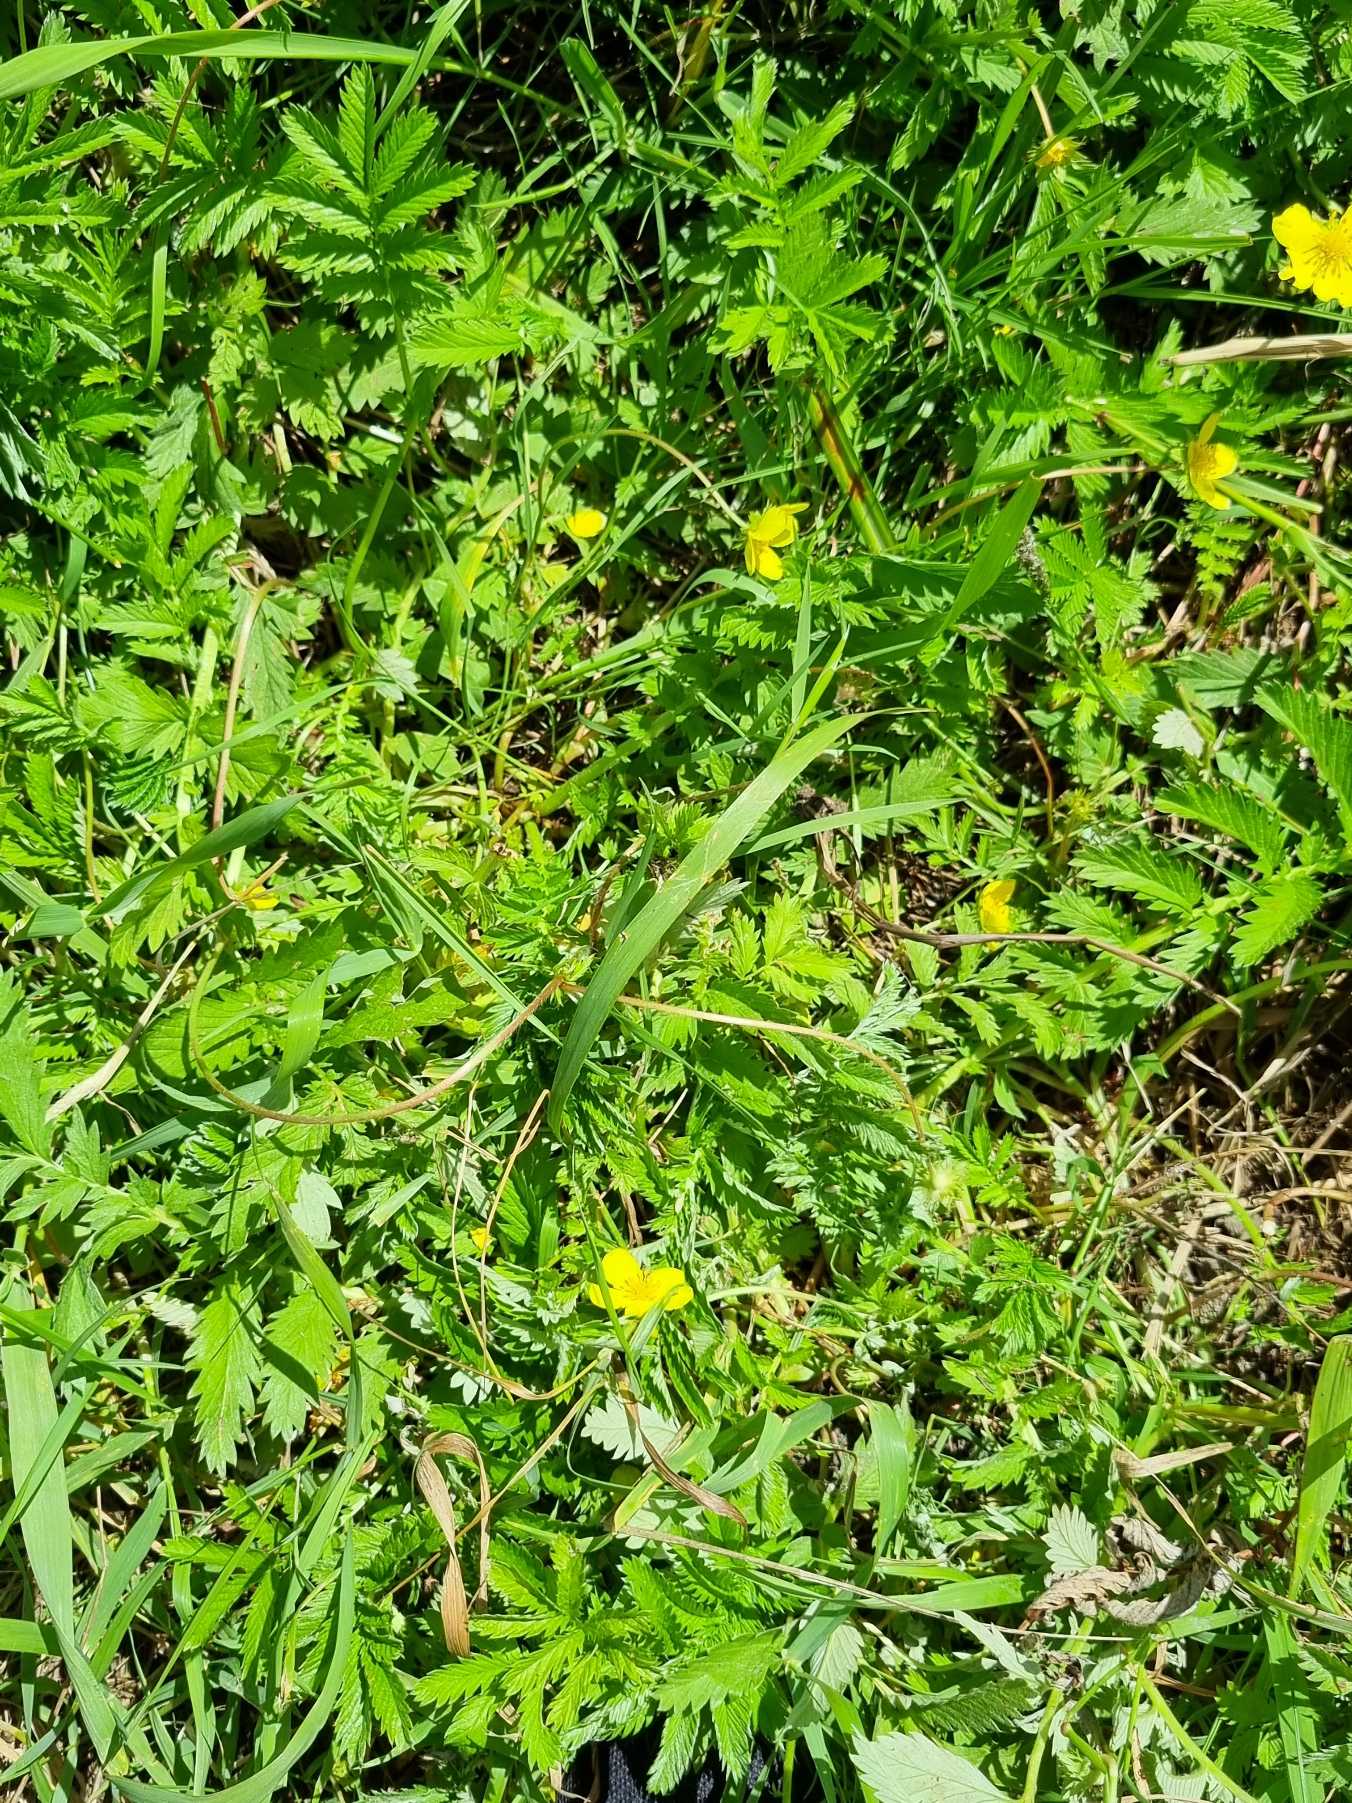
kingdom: Plantae
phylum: Tracheophyta
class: Magnoliopsida
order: Rosales
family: Rosaceae
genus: Argentina
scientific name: Argentina anserina
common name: Gåsepotentil
